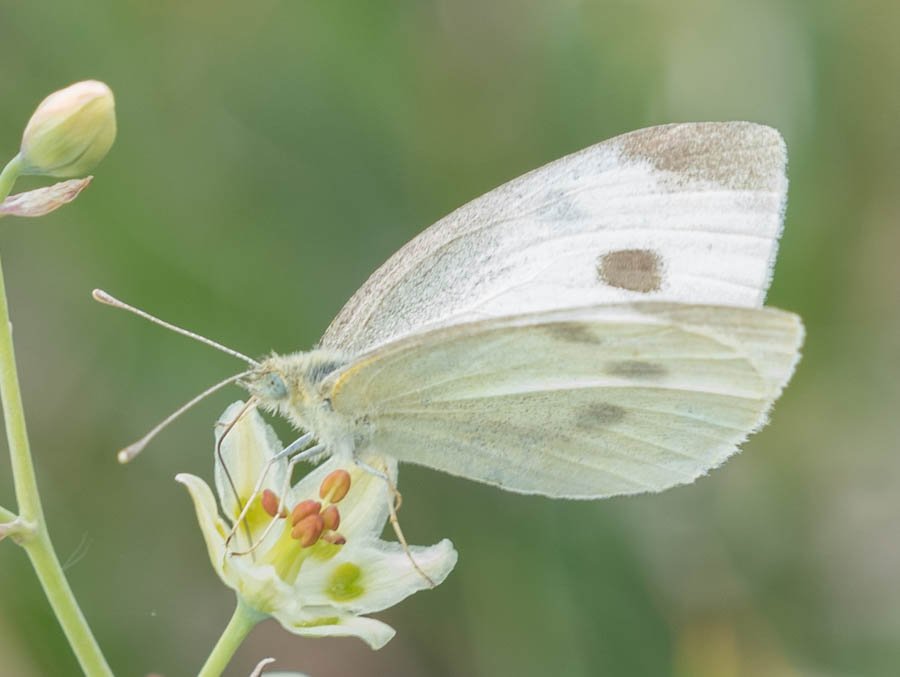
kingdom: Animalia
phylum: Arthropoda
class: Insecta
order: Lepidoptera
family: Pieridae
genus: Pieris
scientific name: Pieris rapae
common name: Cabbage White
